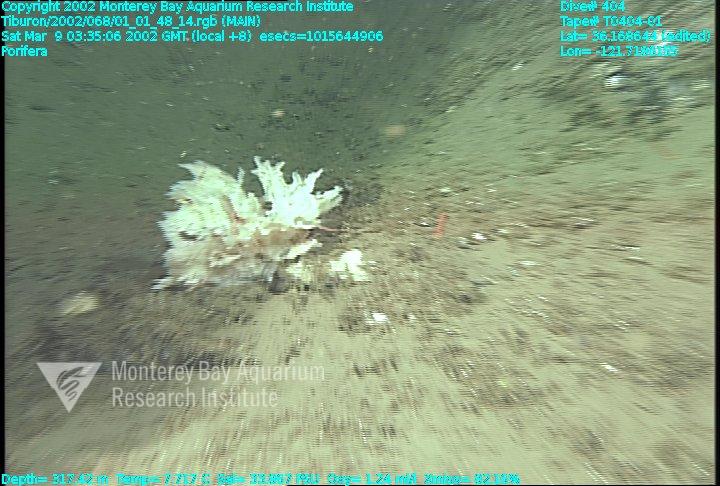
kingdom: Animalia
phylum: Porifera
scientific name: Porifera
